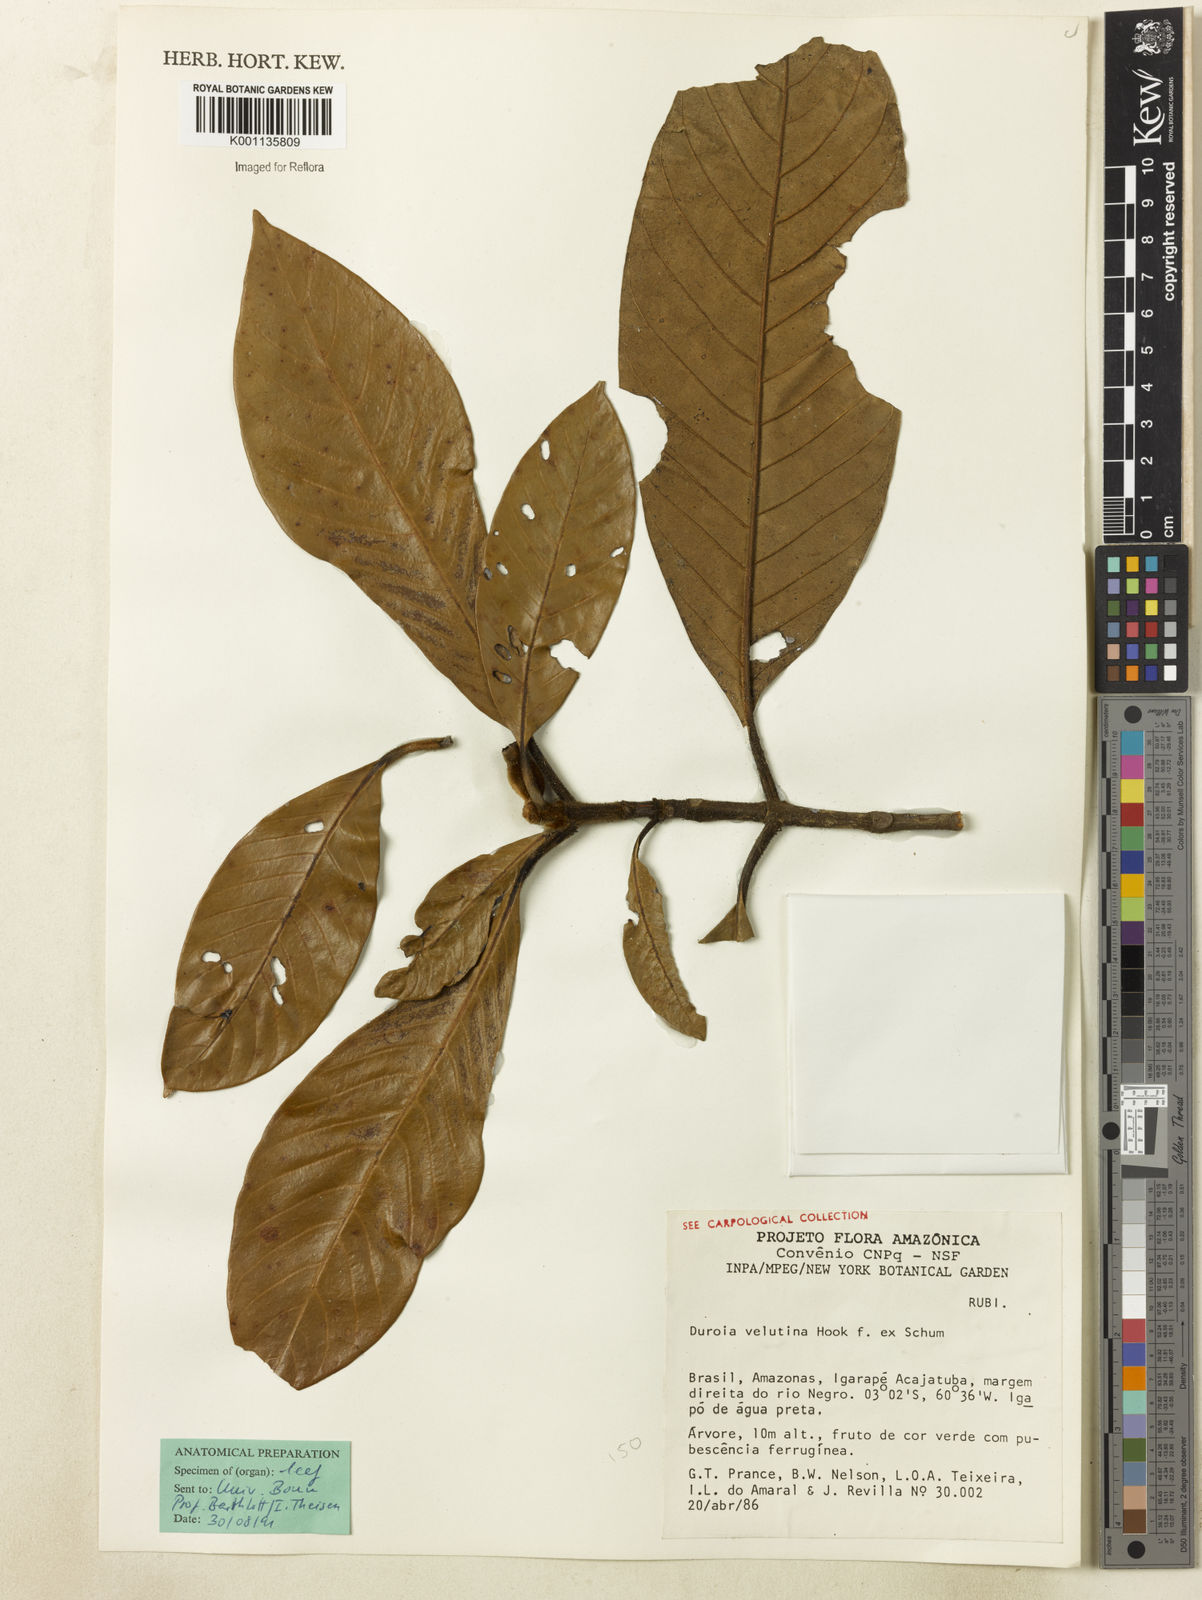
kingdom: Plantae
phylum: Tracheophyta
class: Magnoliopsida
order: Gentianales
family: Rubiaceae
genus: Duroia
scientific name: Duroia velutina
